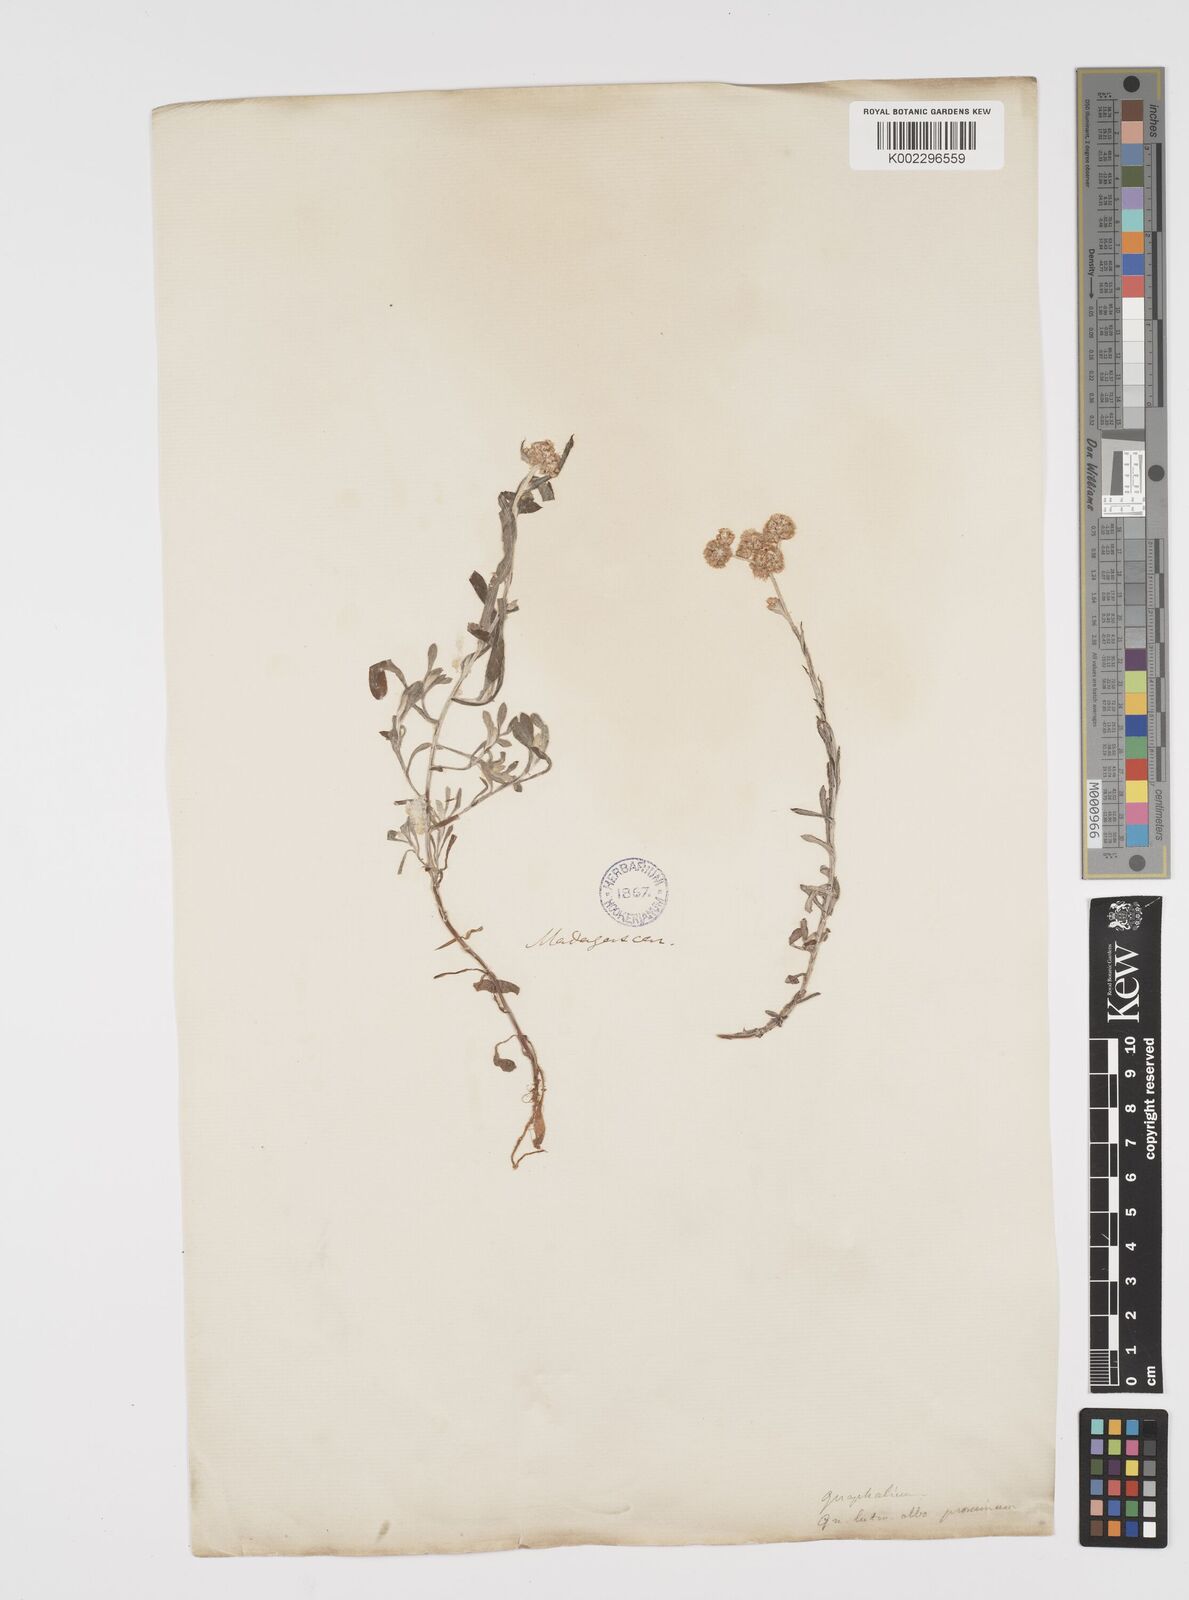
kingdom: Plantae
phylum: Tracheophyta
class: Magnoliopsida
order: Asterales
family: Asteraceae
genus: Helichrysum
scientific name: Helichrysum luteoalbum
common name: Daisy
